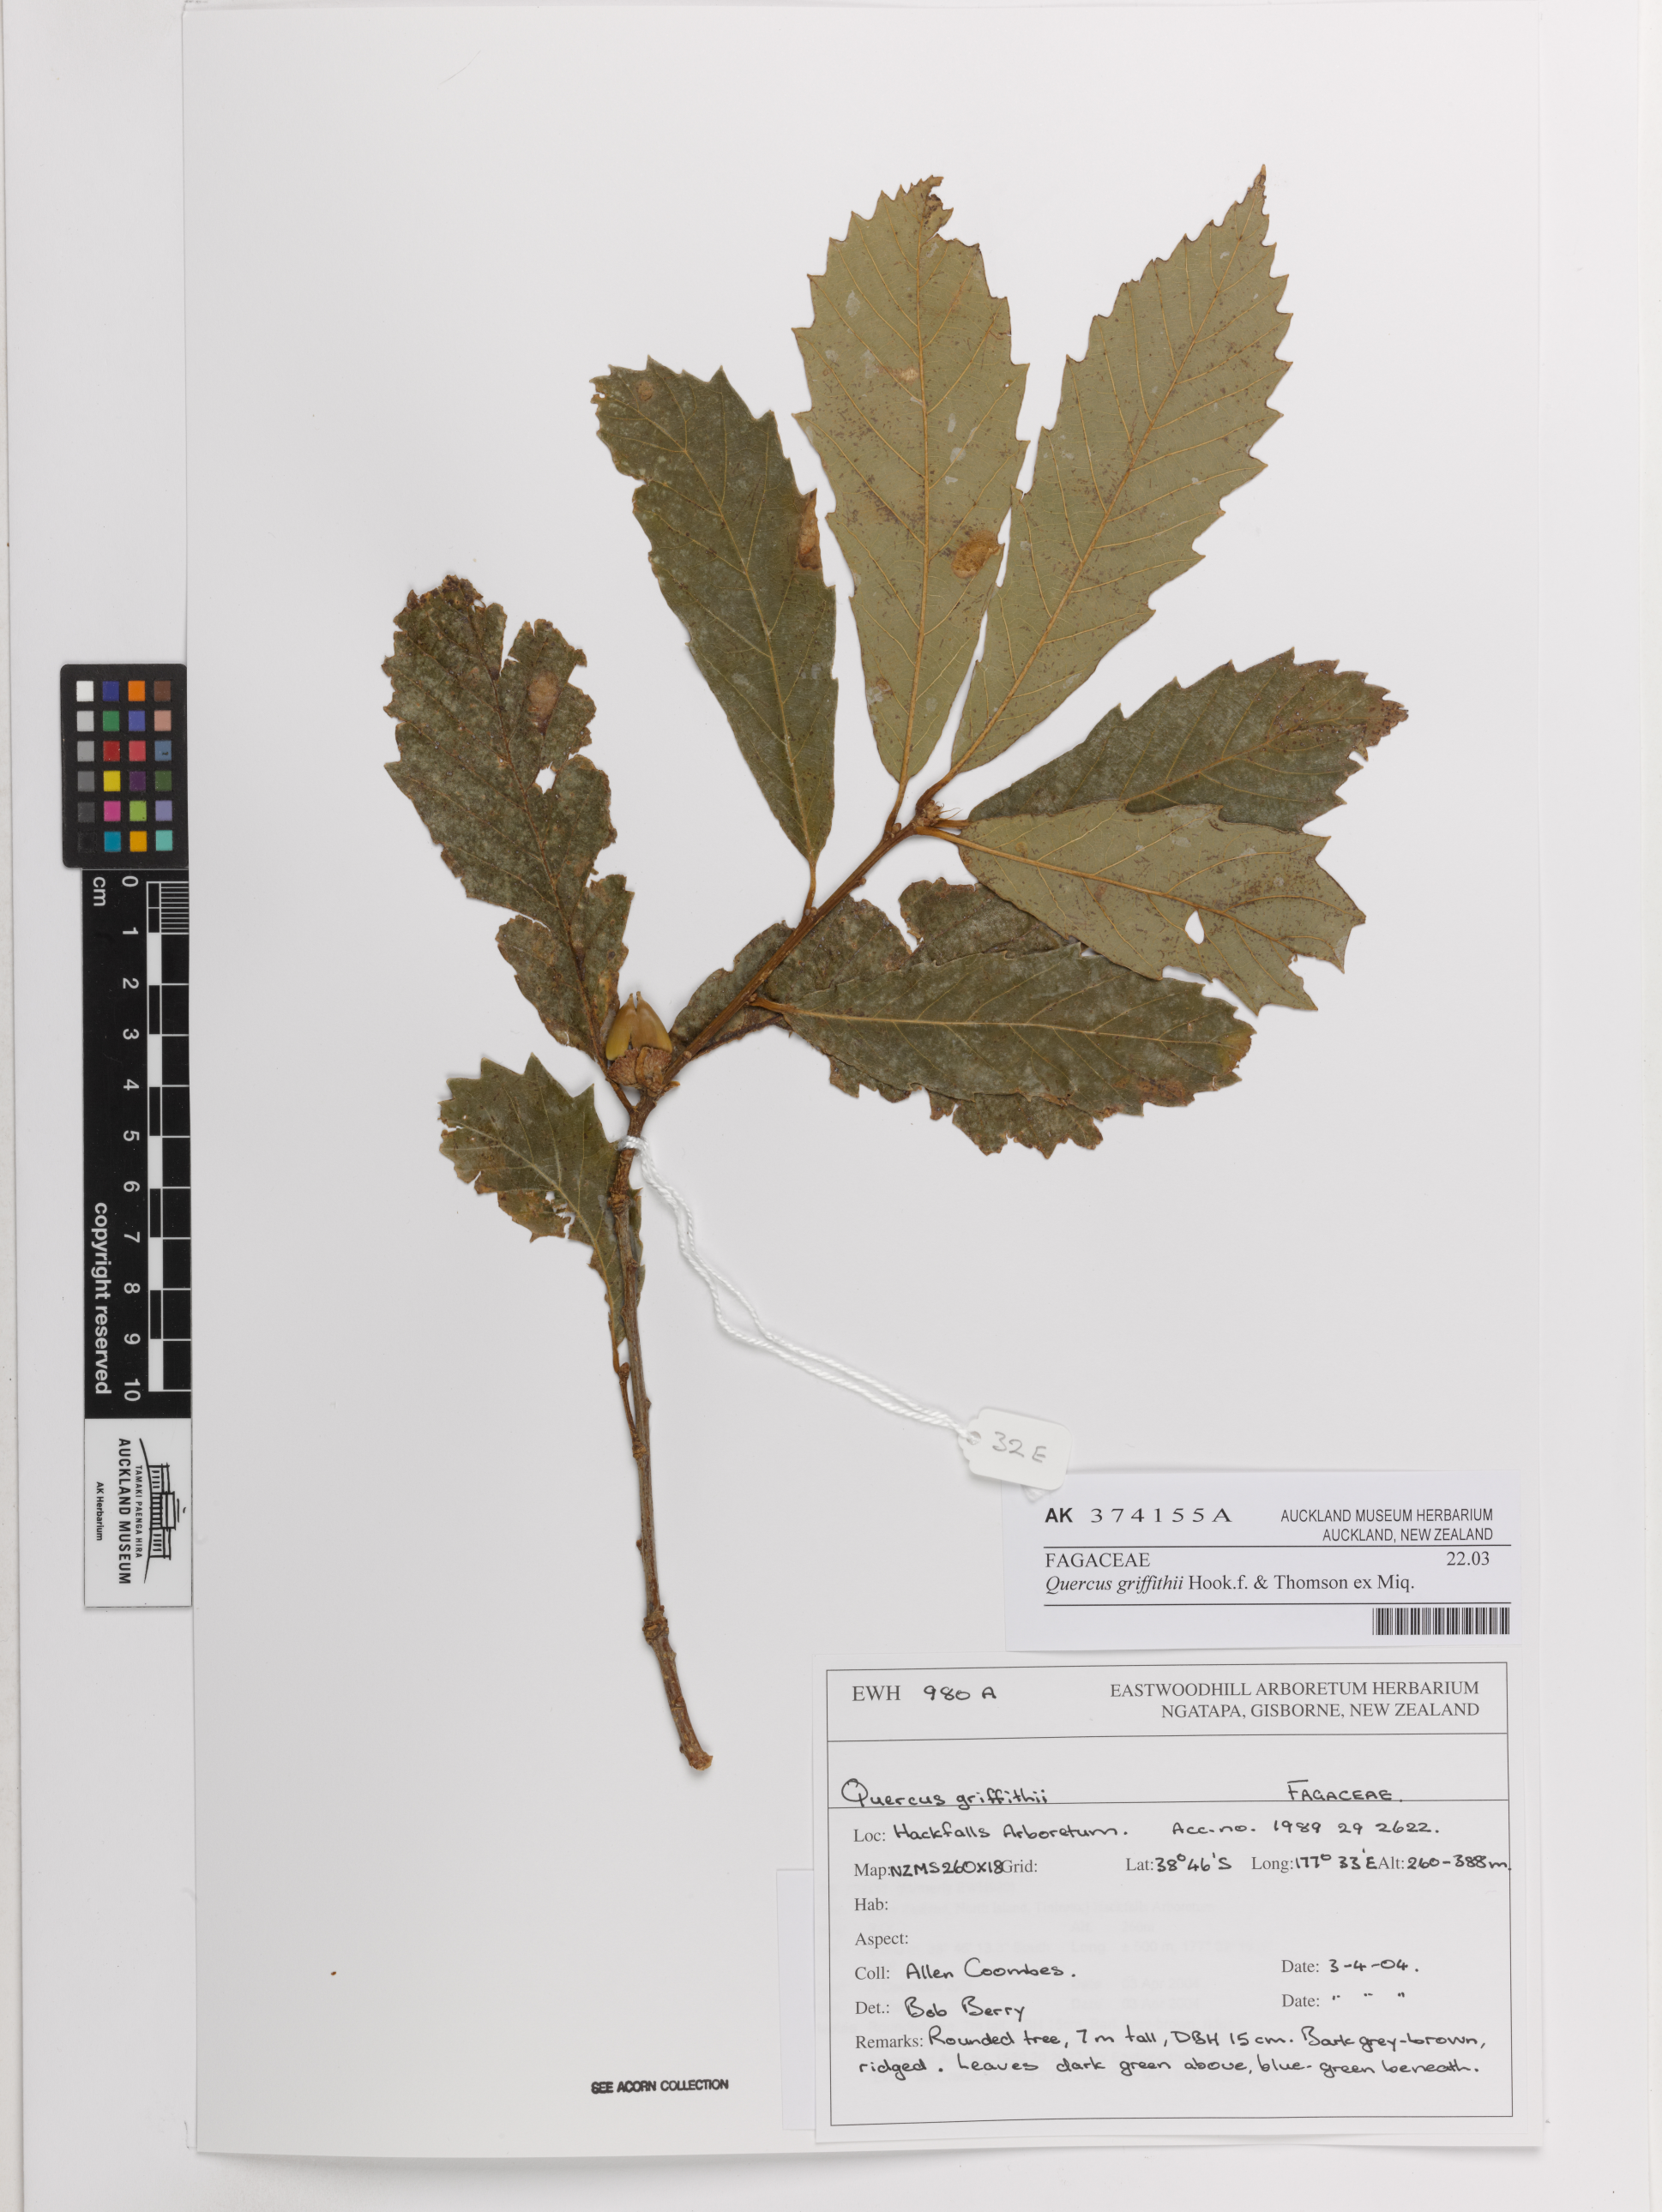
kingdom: Plantae
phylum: Tracheophyta
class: Magnoliopsida
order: Fagales
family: Fagaceae
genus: Quercus
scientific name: Quercus griffithii
